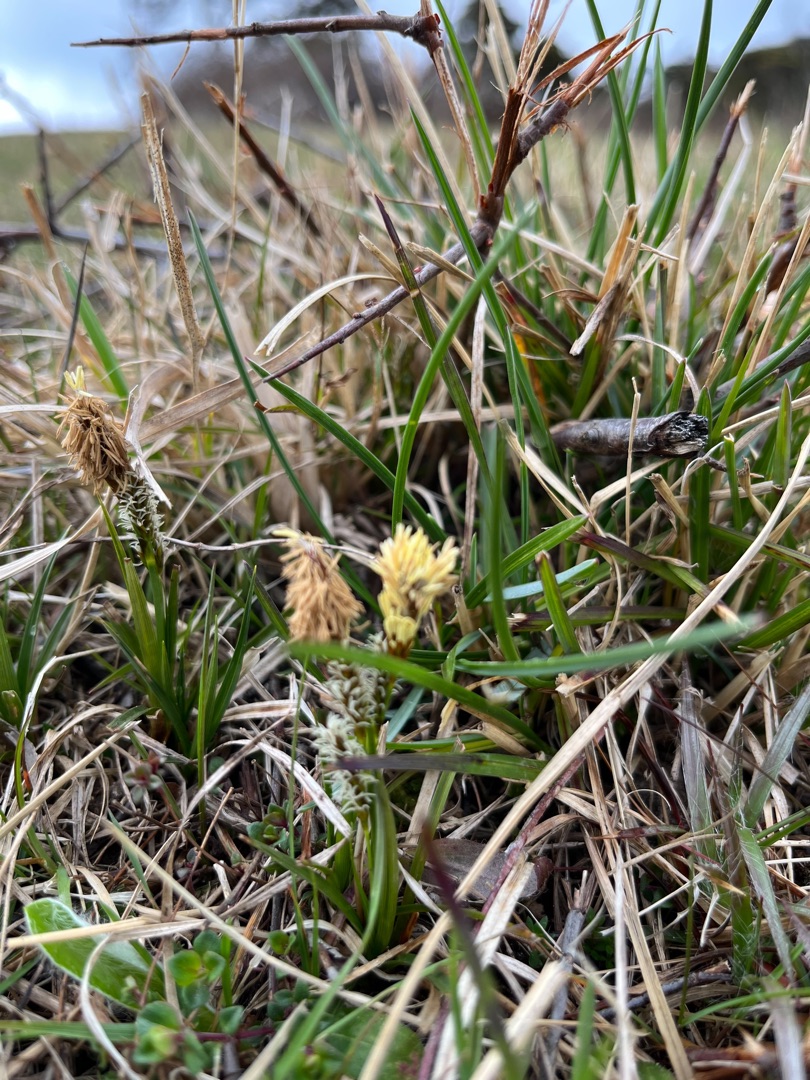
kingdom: Plantae
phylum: Tracheophyta
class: Liliopsida
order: Poales
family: Cyperaceae
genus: Carex
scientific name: Carex caryophyllea
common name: Vår-star
